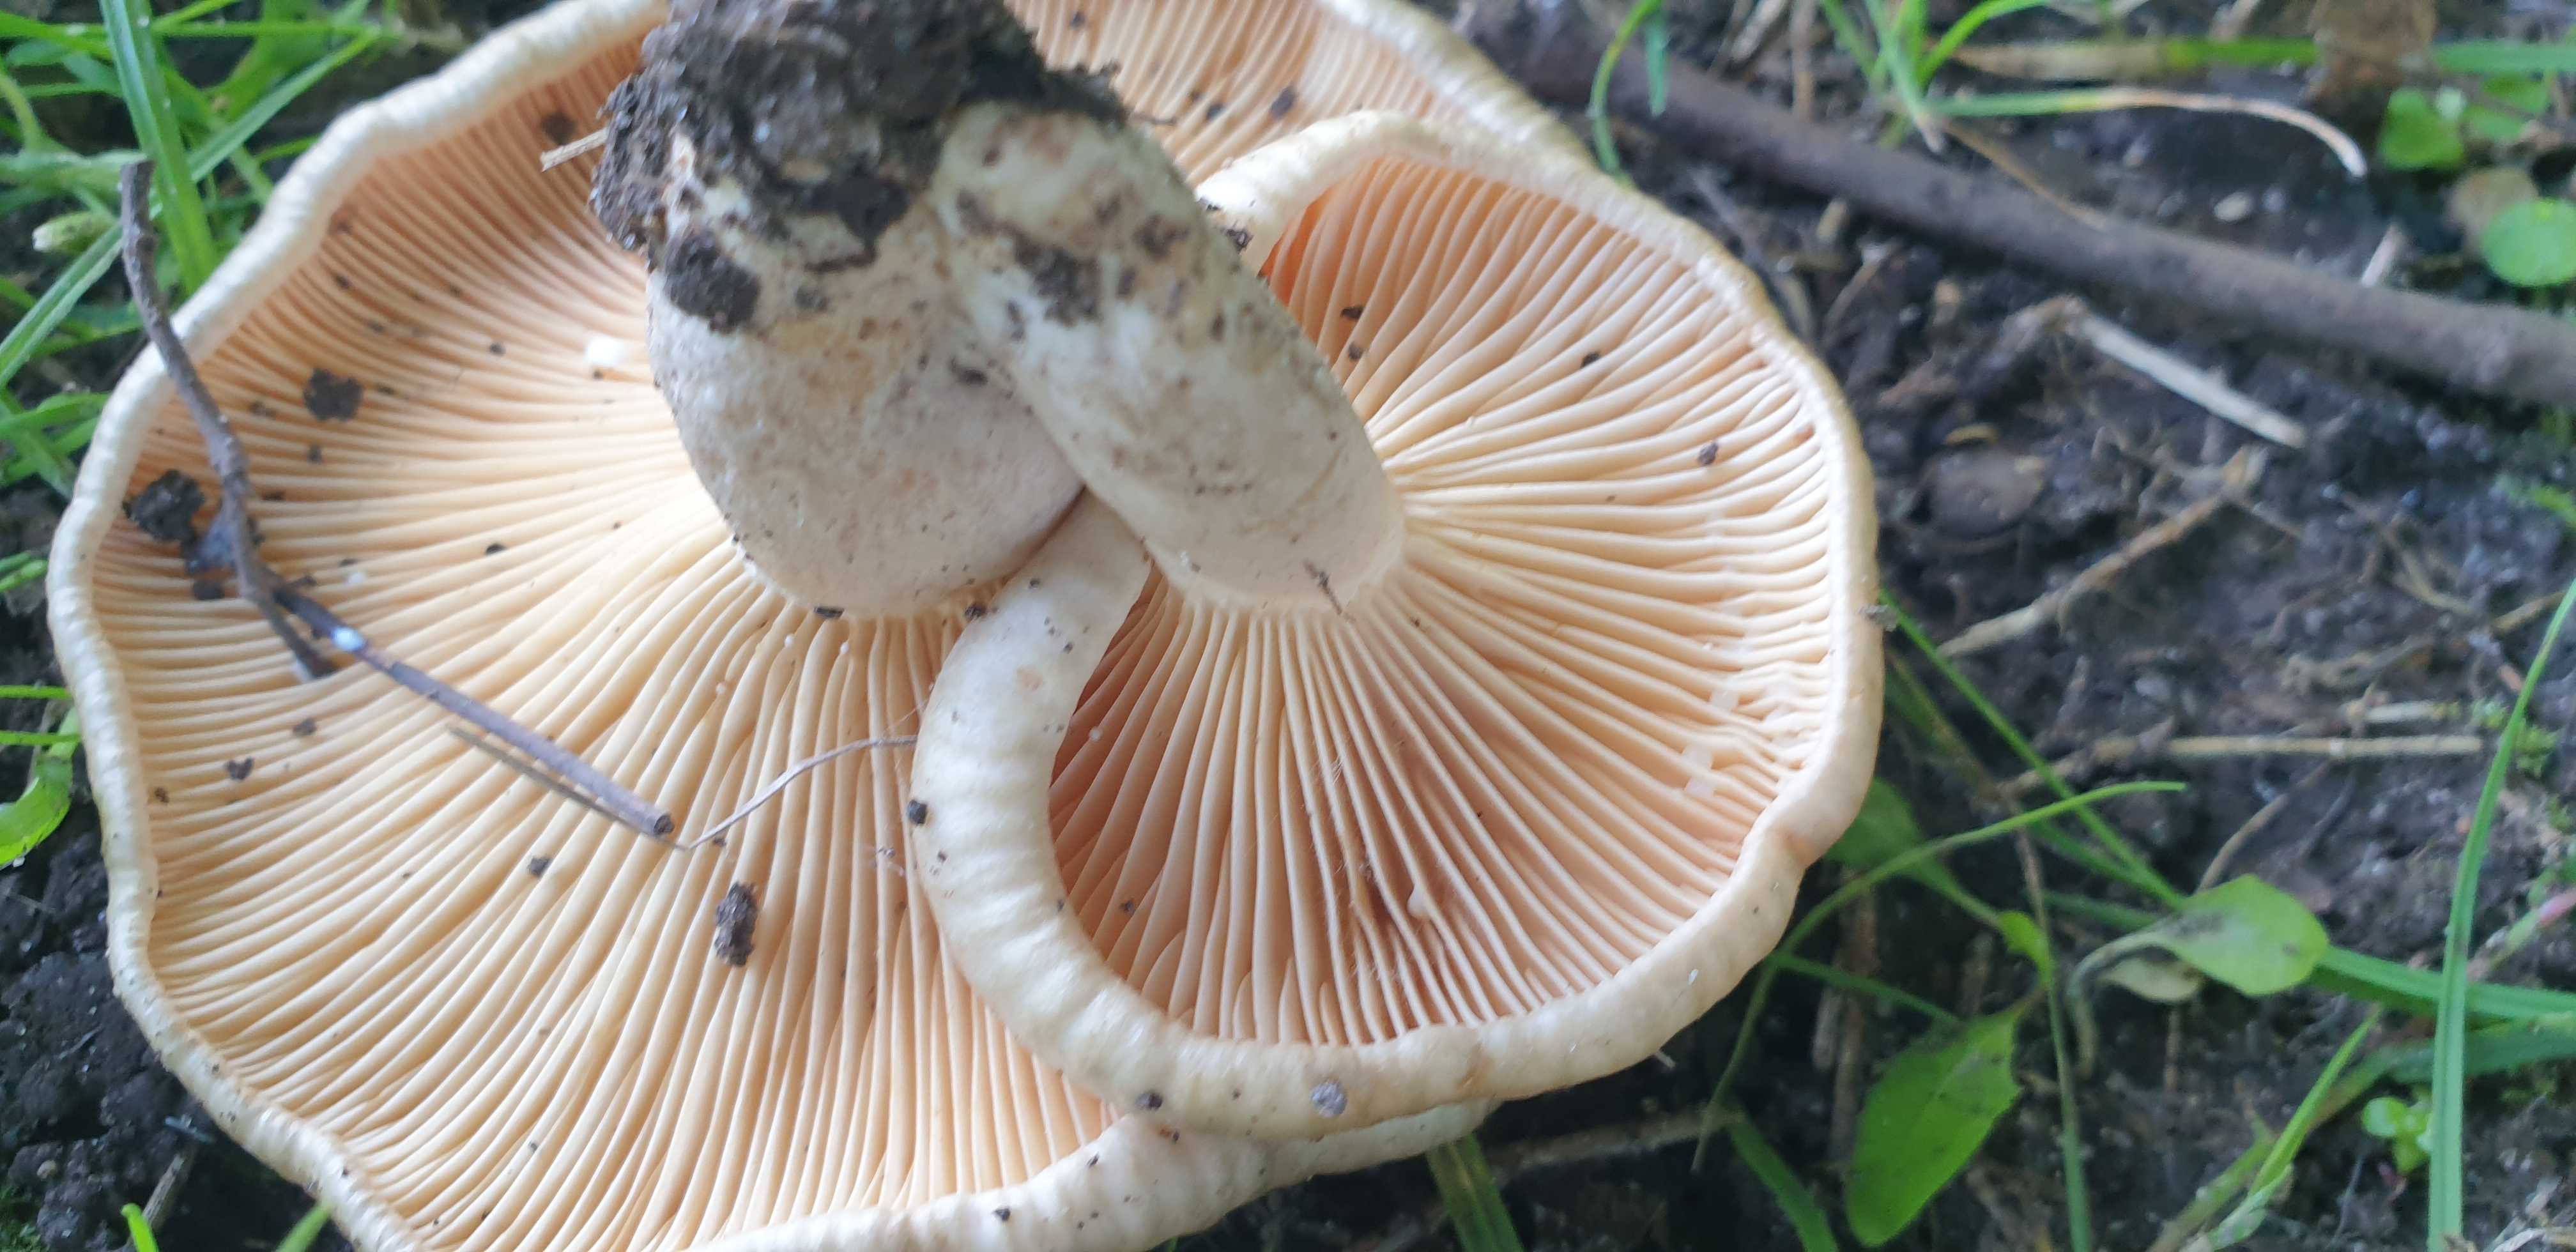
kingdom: Fungi
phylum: Basidiomycota
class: Agaricomycetes
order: Russulales
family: Russulaceae
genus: Lactarius
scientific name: Lactarius pyrogalus
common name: hassel-mælkehat
